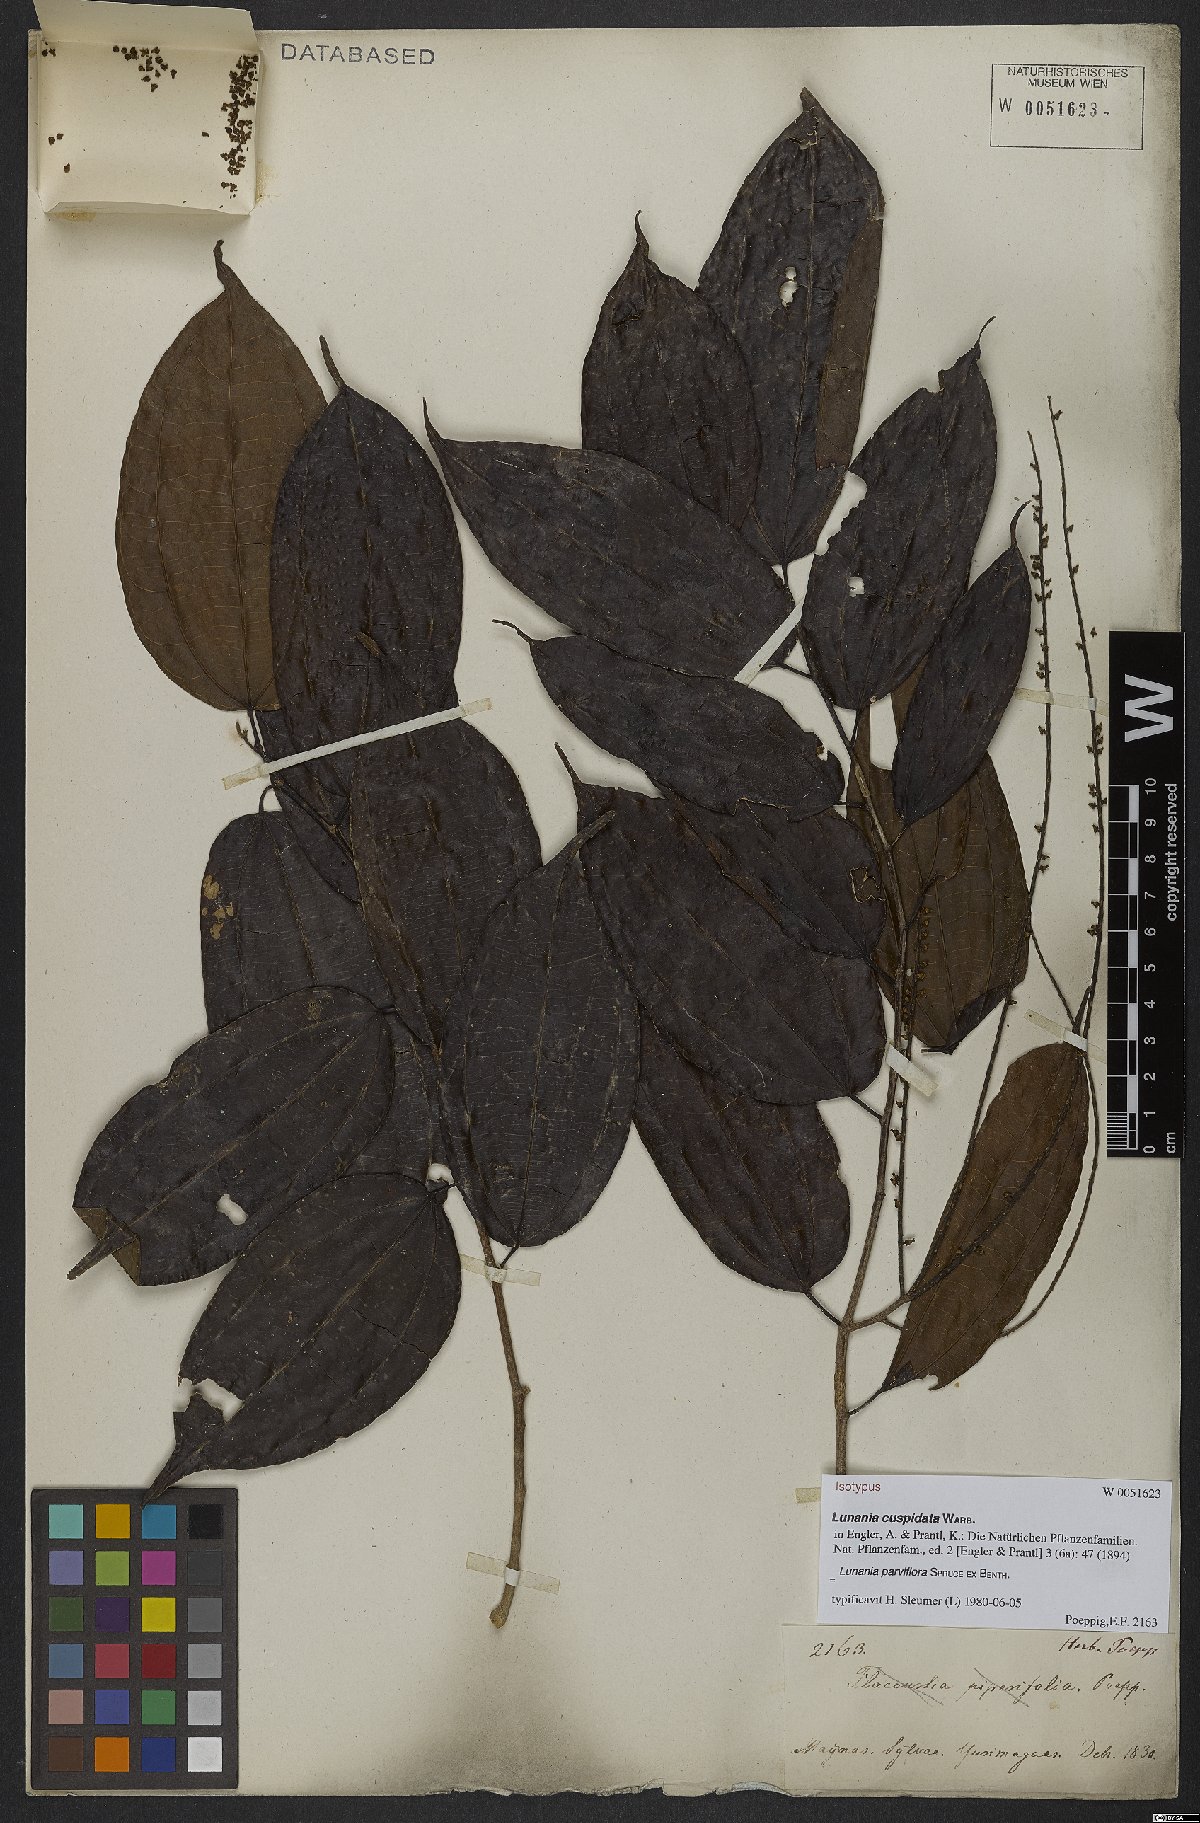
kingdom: Plantae
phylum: Tracheophyta
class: Magnoliopsida
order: Malpighiales
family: Salicaceae
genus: Lunania
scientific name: Lunania parviflora
